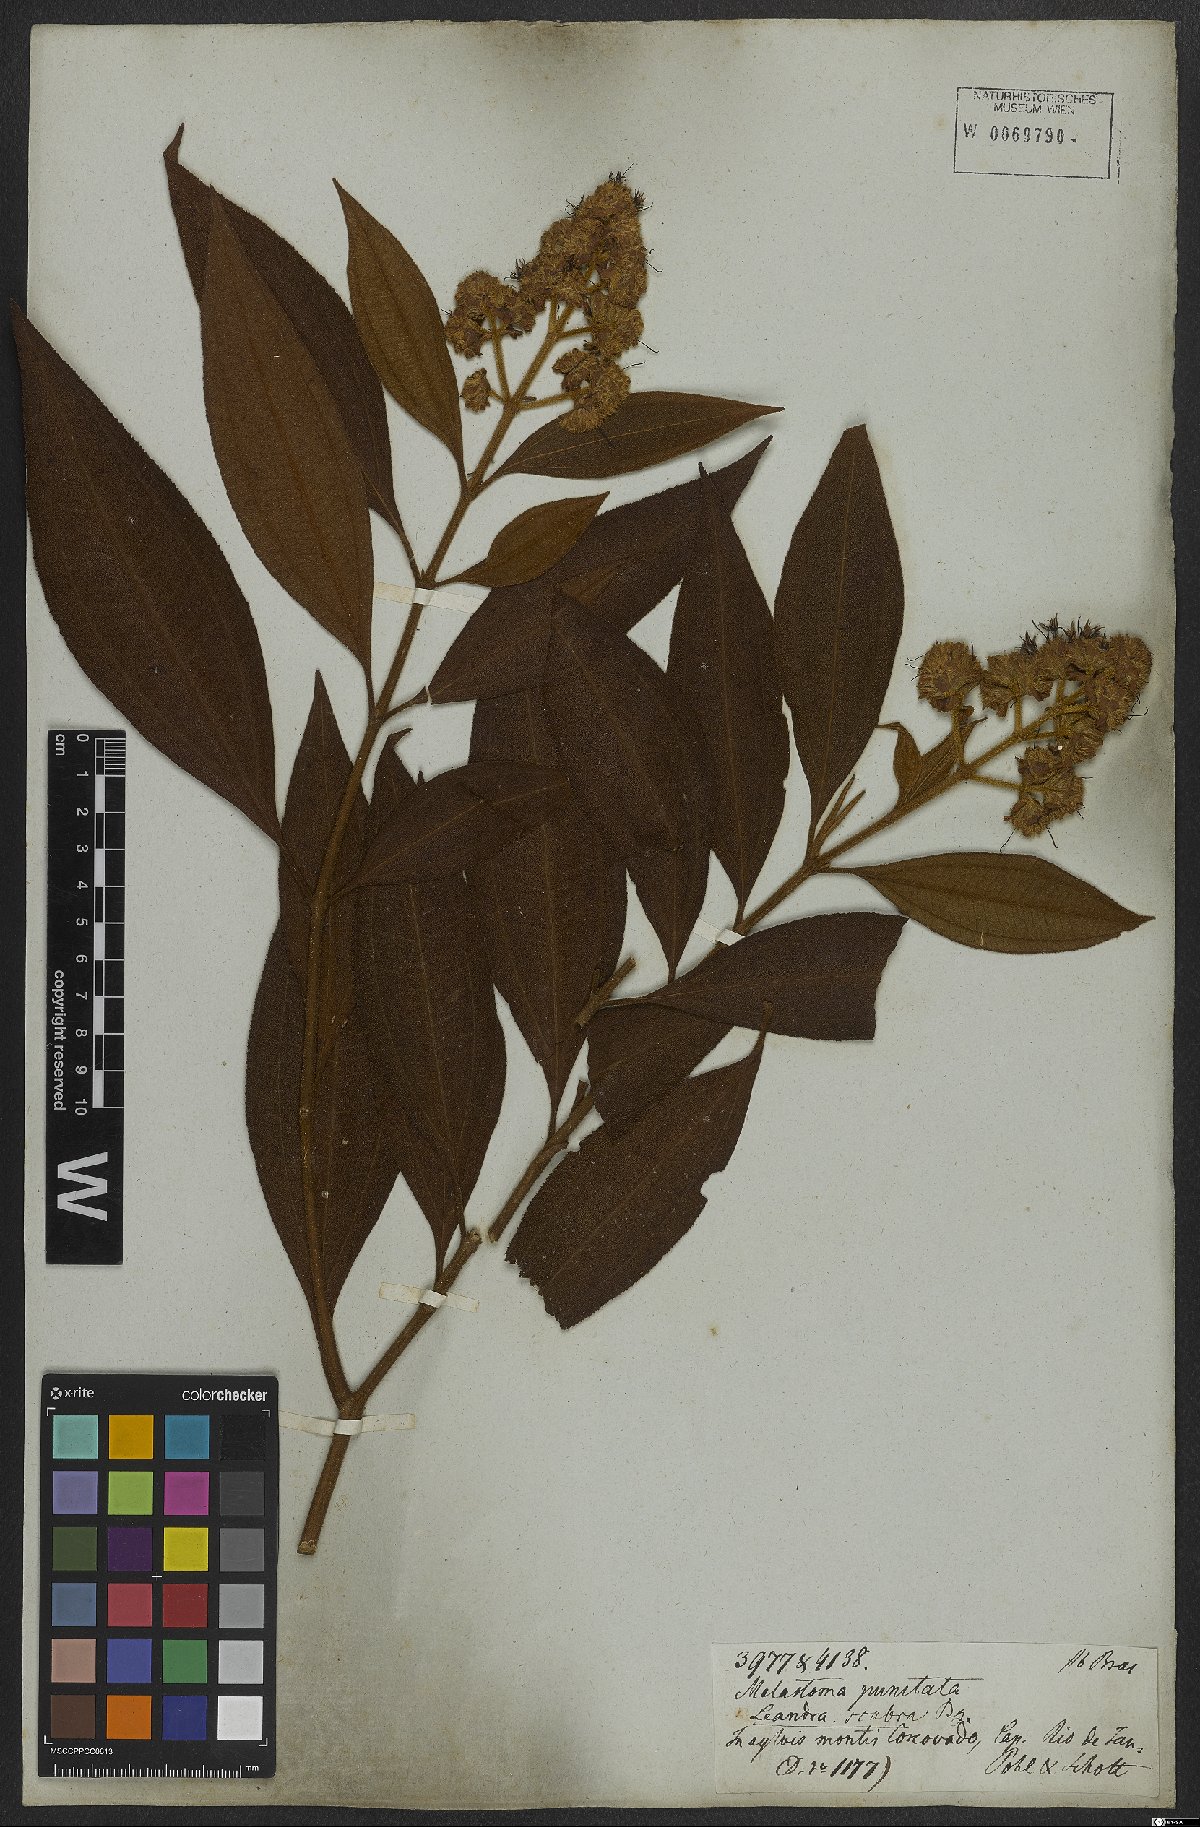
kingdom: Plantae
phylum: Tracheophyta
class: Magnoliopsida
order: Myrtales
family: Melastomataceae
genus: Miconia
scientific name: Miconia melastomoides
